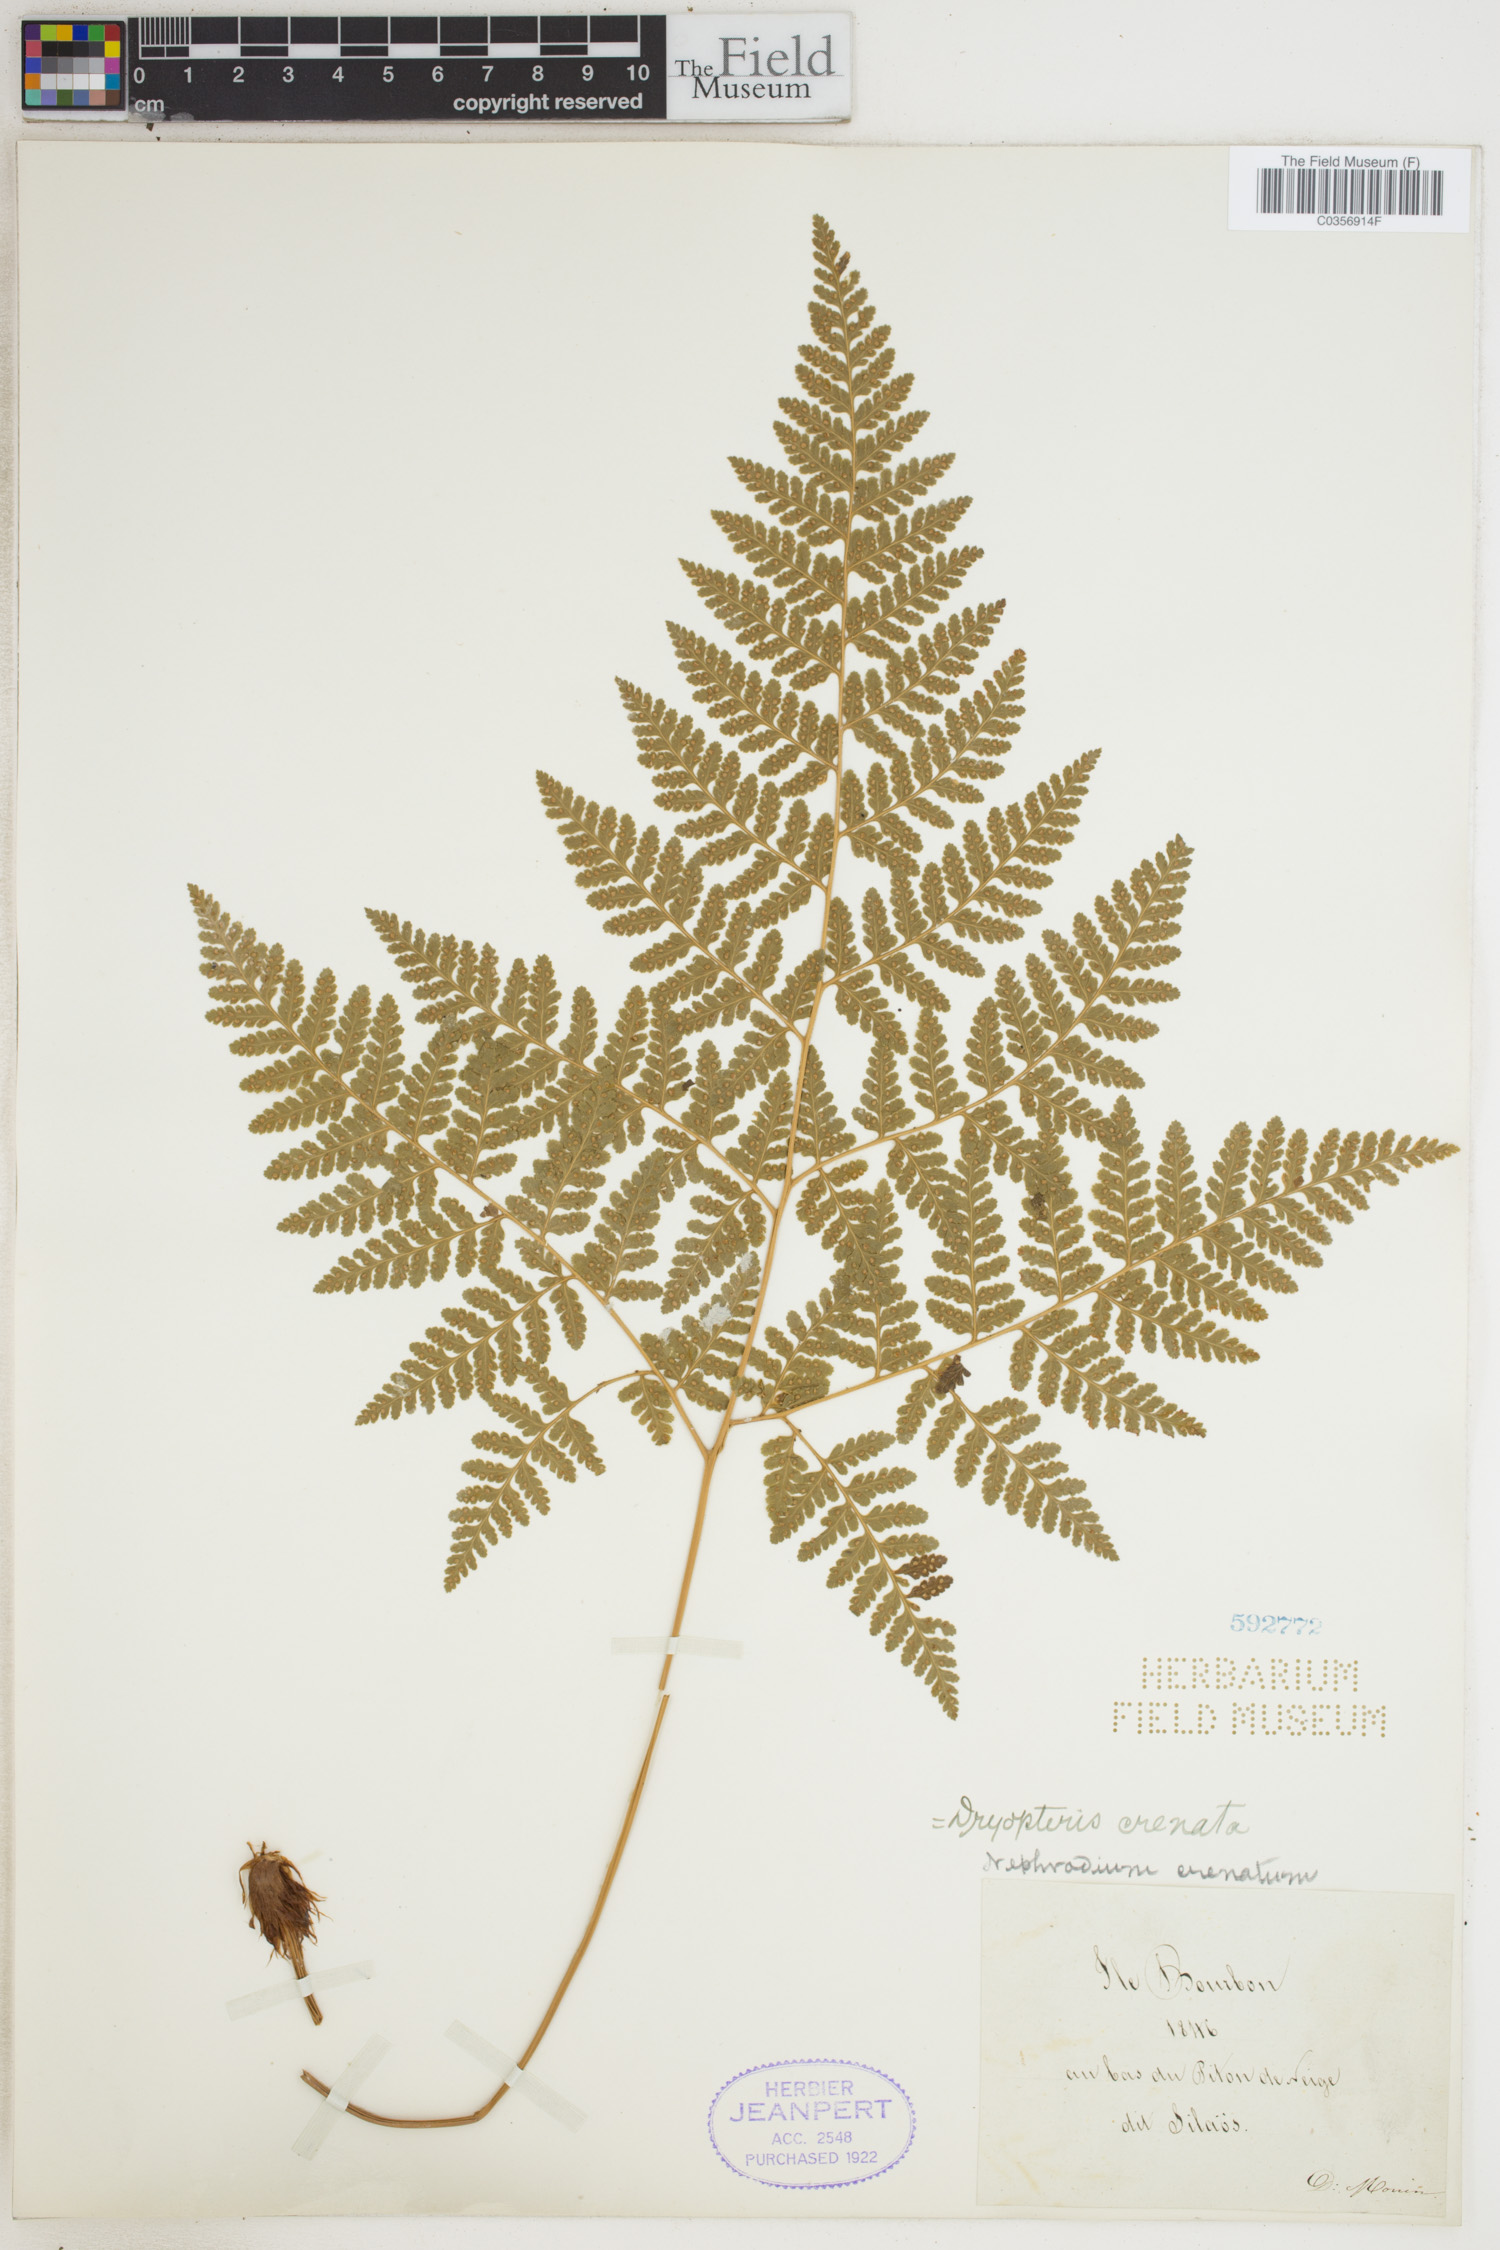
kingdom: Plantae
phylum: Tracheophyta
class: Polypodiopsida
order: Polypodiales
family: Hypodematiaceae
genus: Hypodematium
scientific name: Hypodematium chrysolepis
